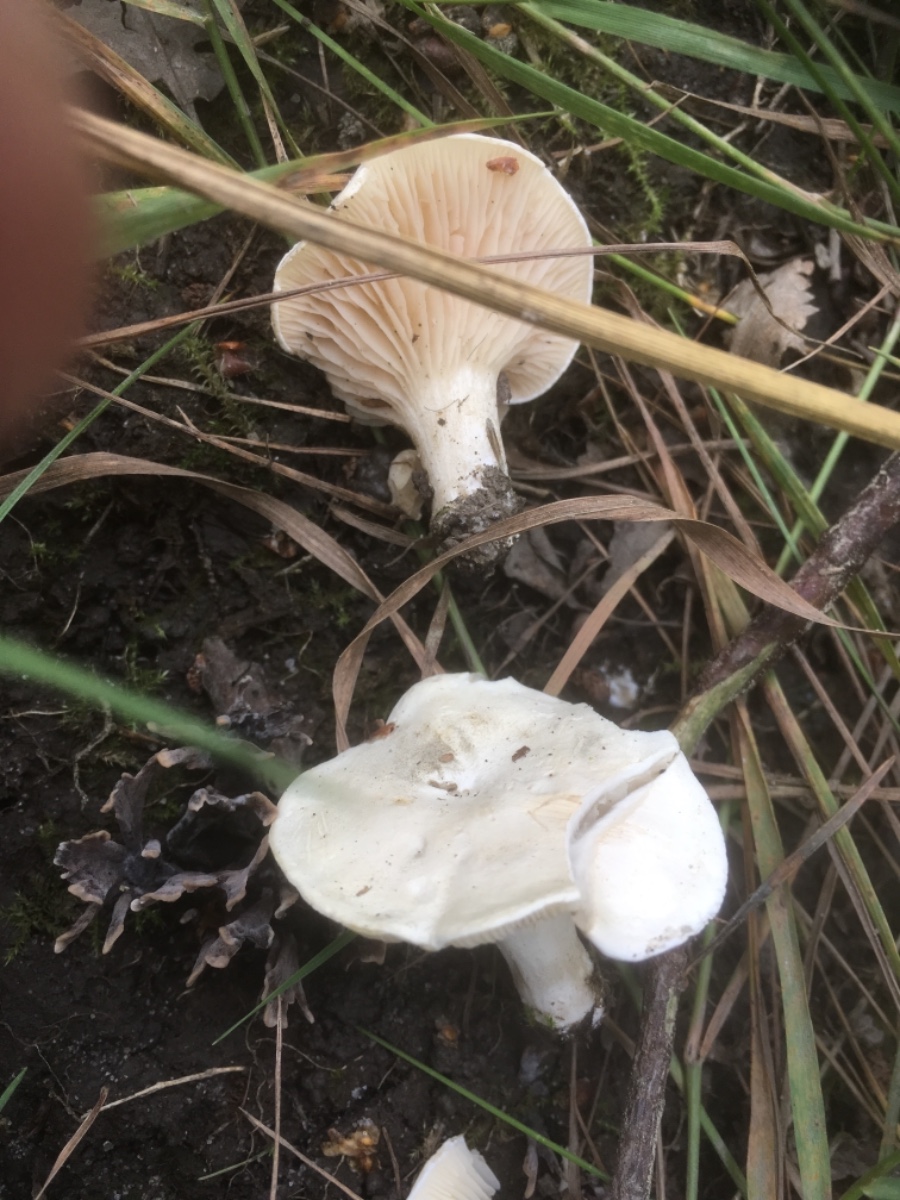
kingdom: Fungi
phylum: Basidiomycota
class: Agaricomycetes
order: Agaricales
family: Entolomataceae
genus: Clitopilus
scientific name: Clitopilus prunulus
